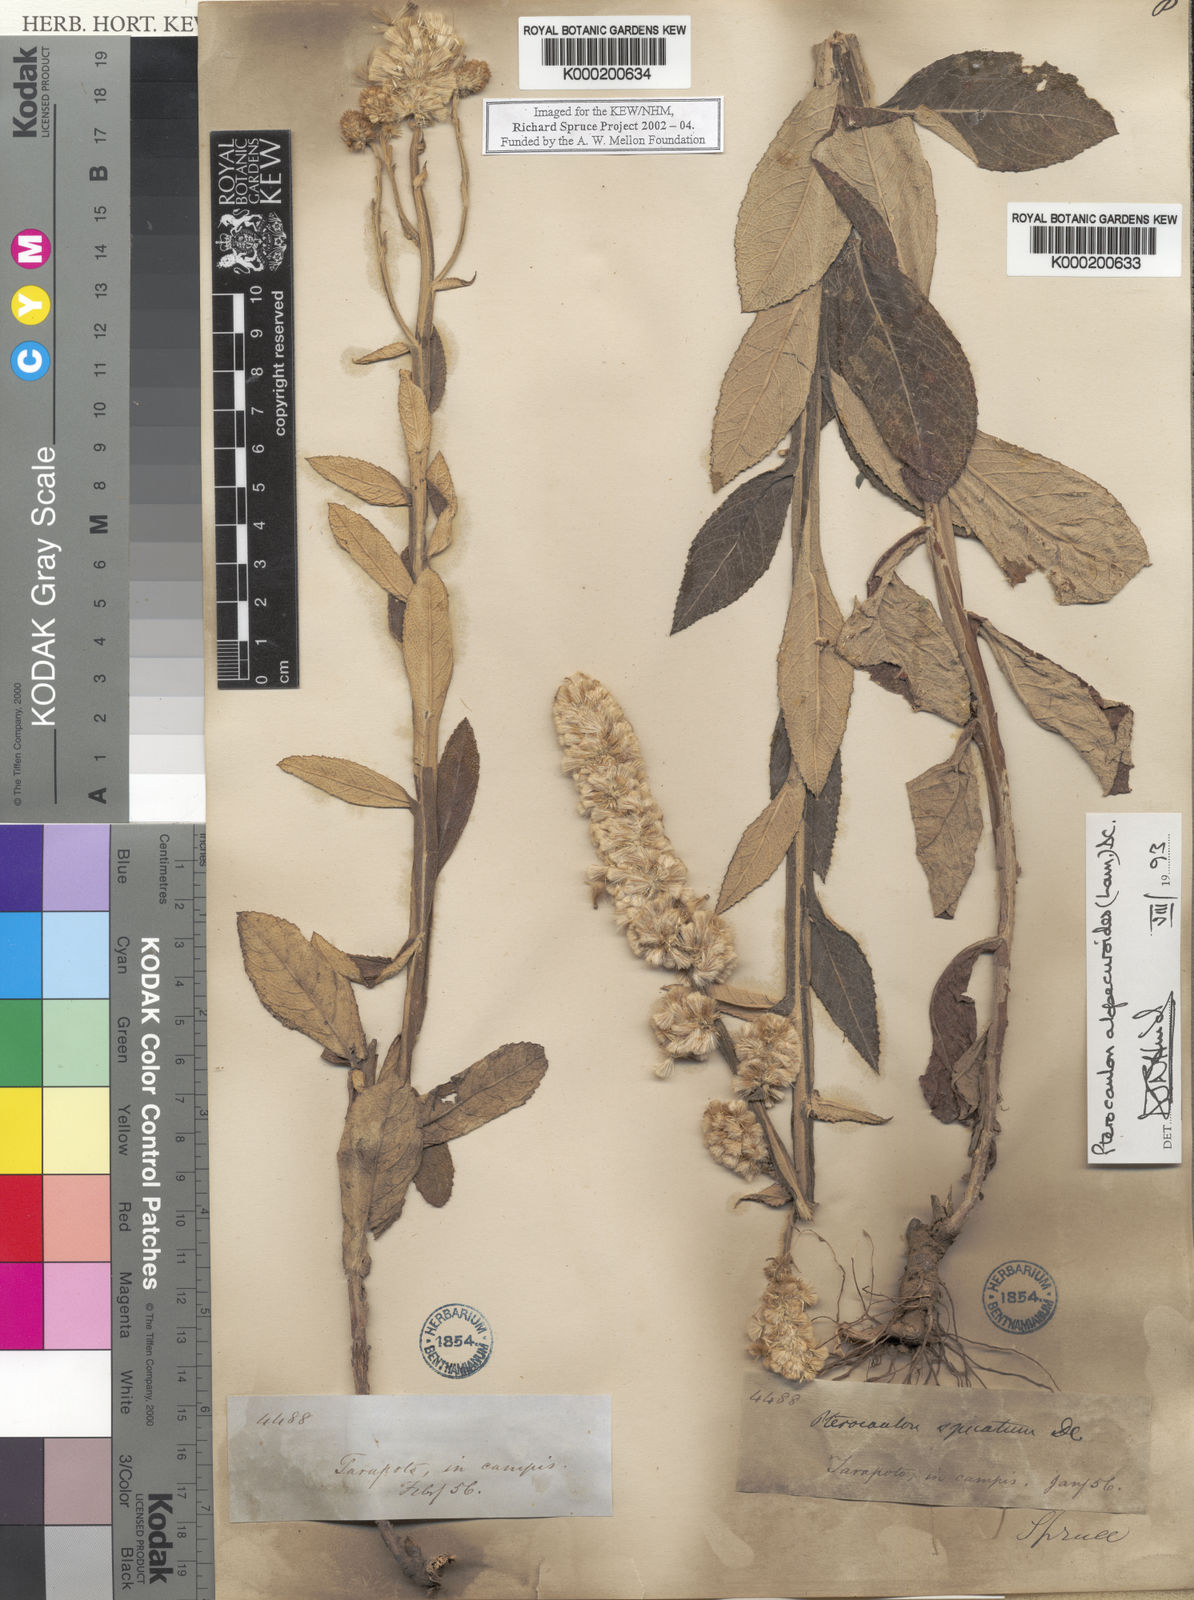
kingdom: Plantae
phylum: Tracheophyta
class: Magnoliopsida
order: Asterales
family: Asteraceae
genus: Pterocaulon
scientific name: Pterocaulon alopecuroides
